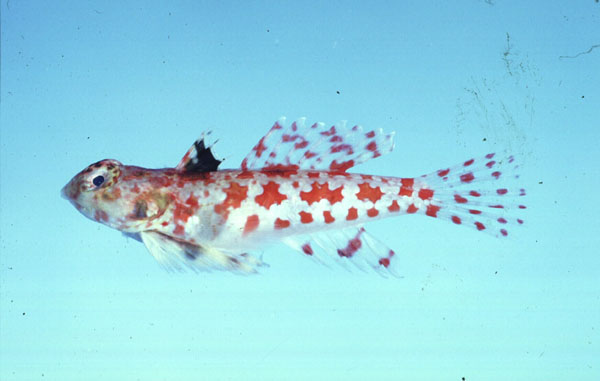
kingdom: Animalia
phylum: Chordata
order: Perciformes
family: Callionymidae
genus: Synchiropus
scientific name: Synchiropus stellatus
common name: Starry dragonet
